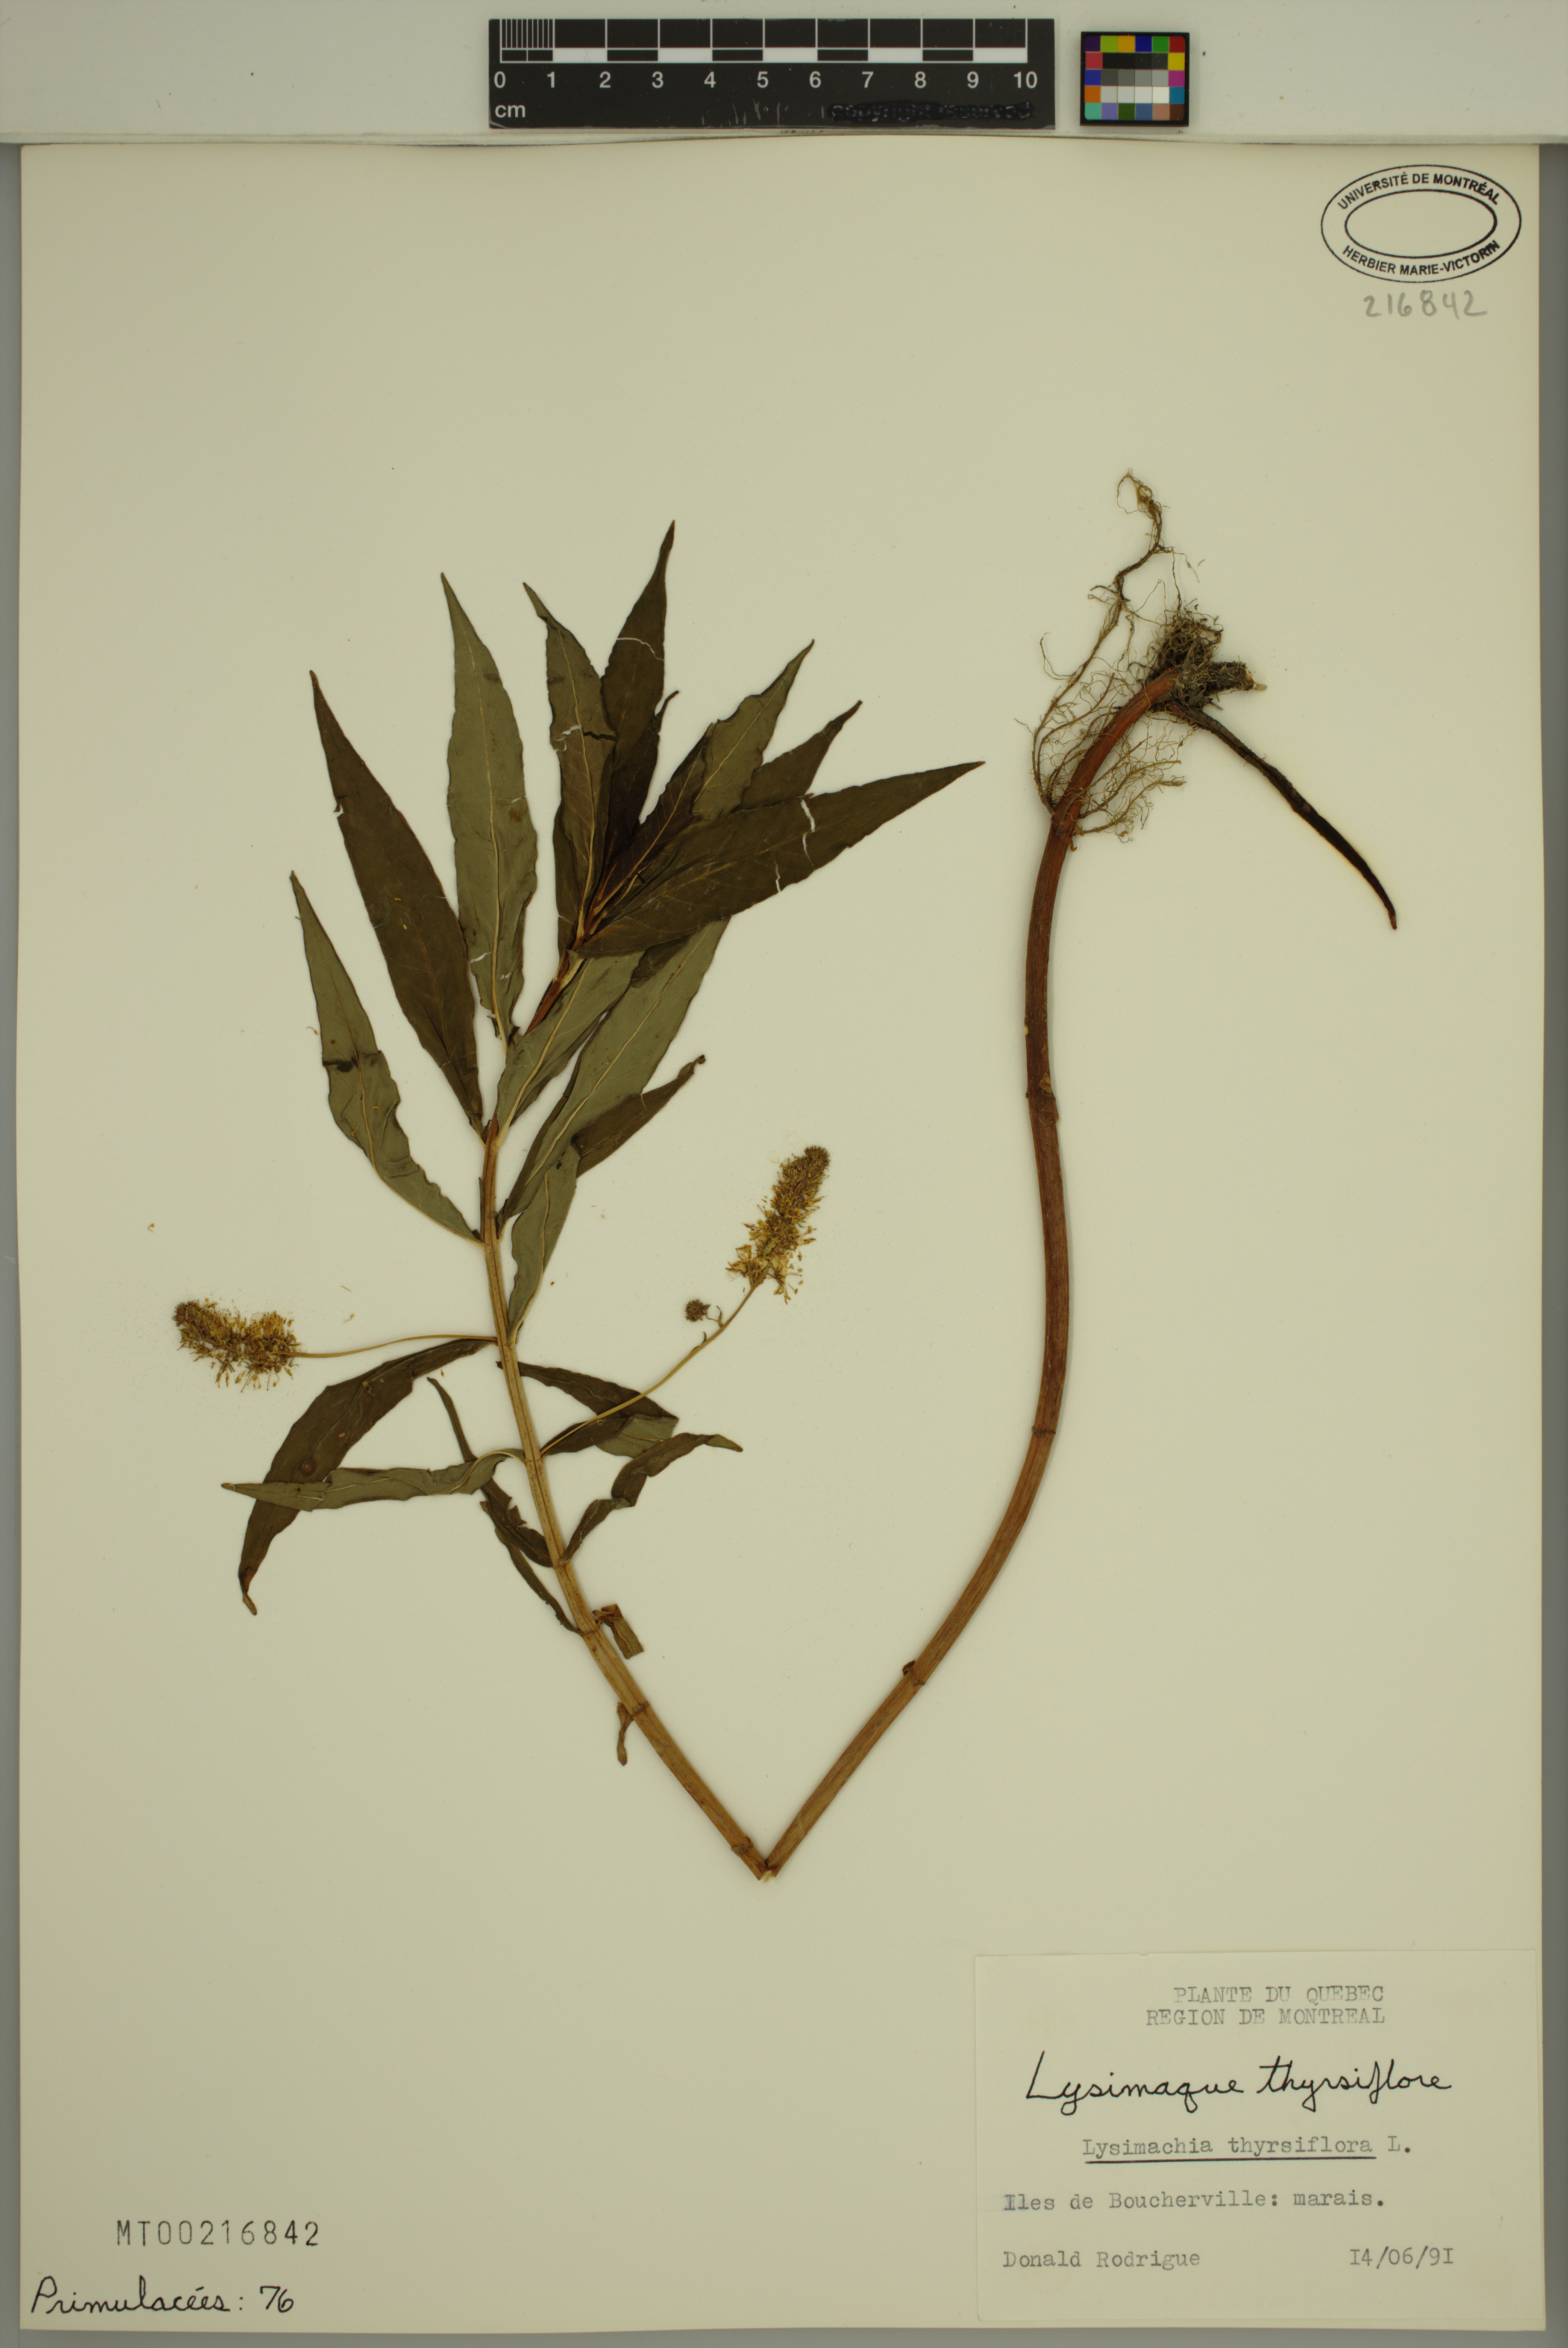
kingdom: Plantae
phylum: Tracheophyta
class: Magnoliopsida
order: Ericales
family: Primulaceae
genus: Lysimachia
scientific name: Lysimachia thyrsiflora
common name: Tufted loosestrife
